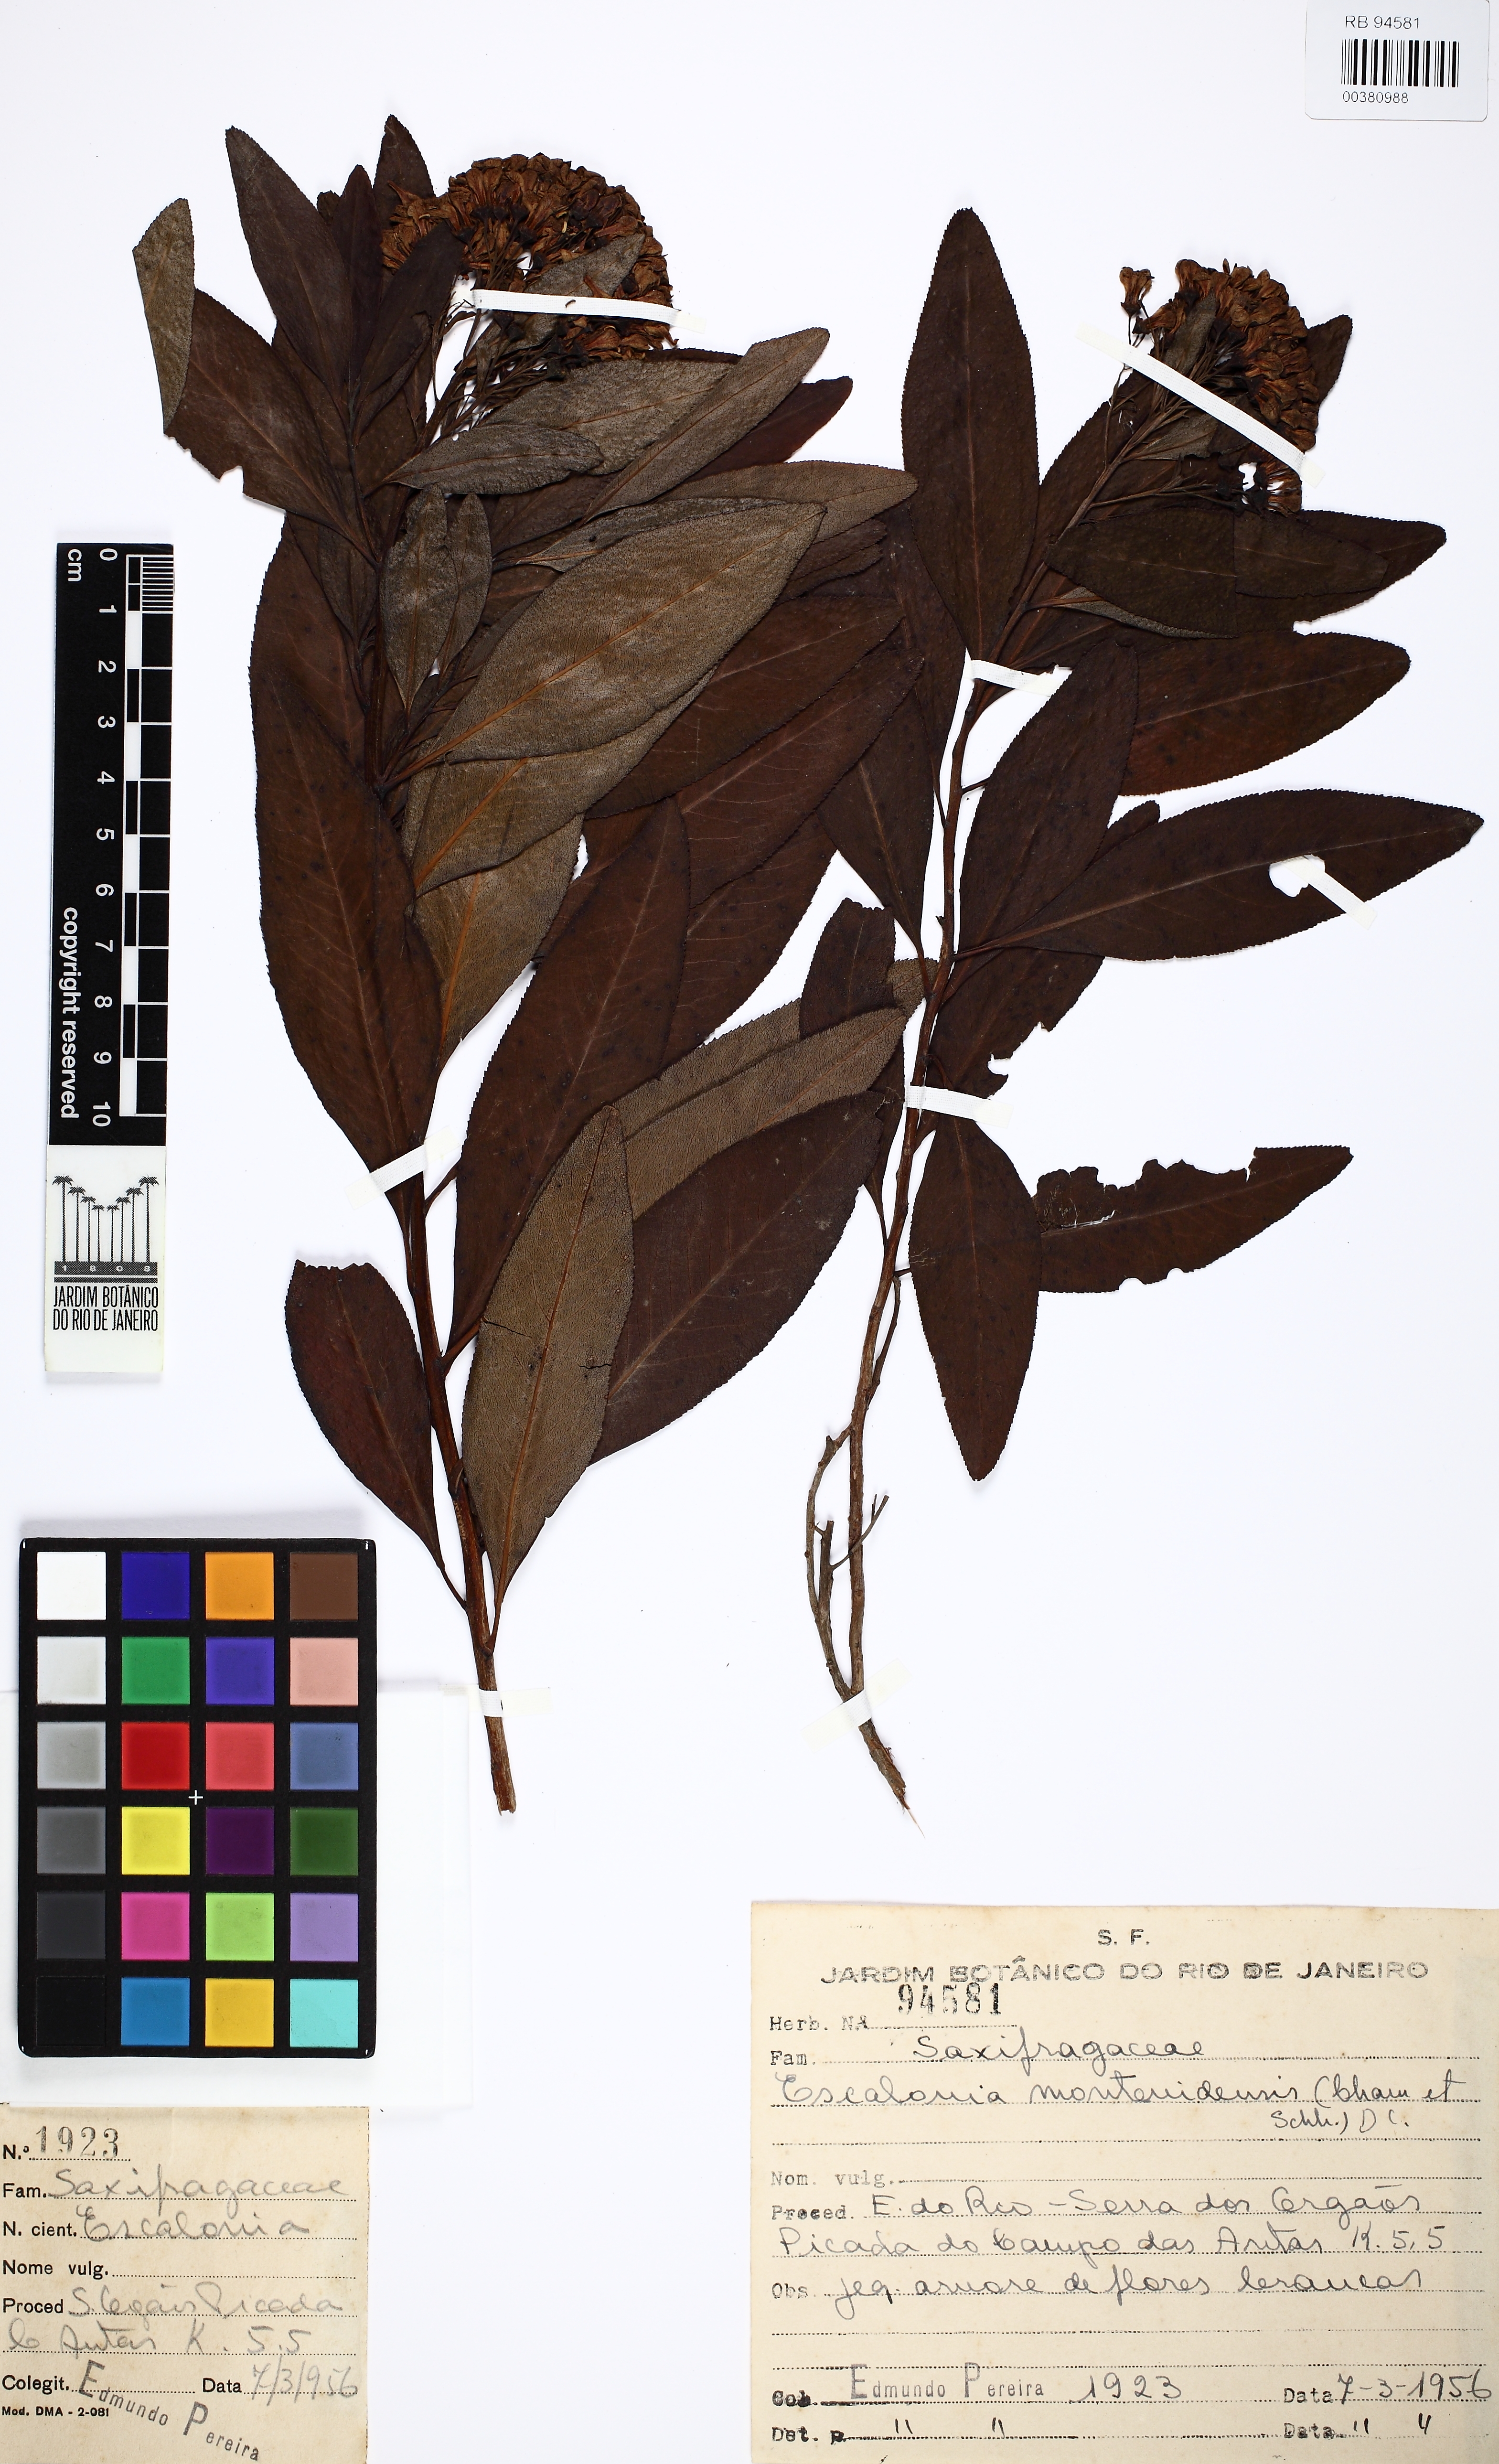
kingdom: Plantae
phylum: Tracheophyta
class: Magnoliopsida
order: Escalloniales
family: Escalloniaceae
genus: Escallonia
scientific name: Escallonia bifida
